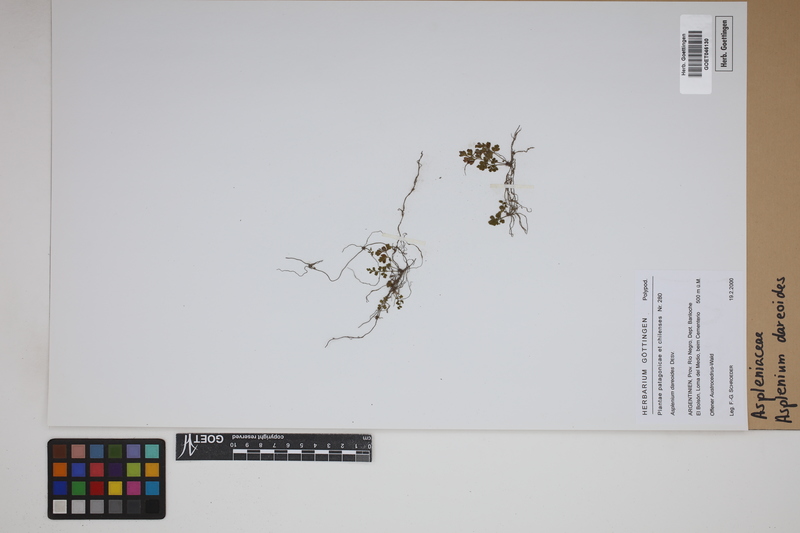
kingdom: Plantae
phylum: Tracheophyta
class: Polypodiopsida
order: Polypodiales
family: Aspleniaceae
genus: Asplenium
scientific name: Asplenium dareoides
